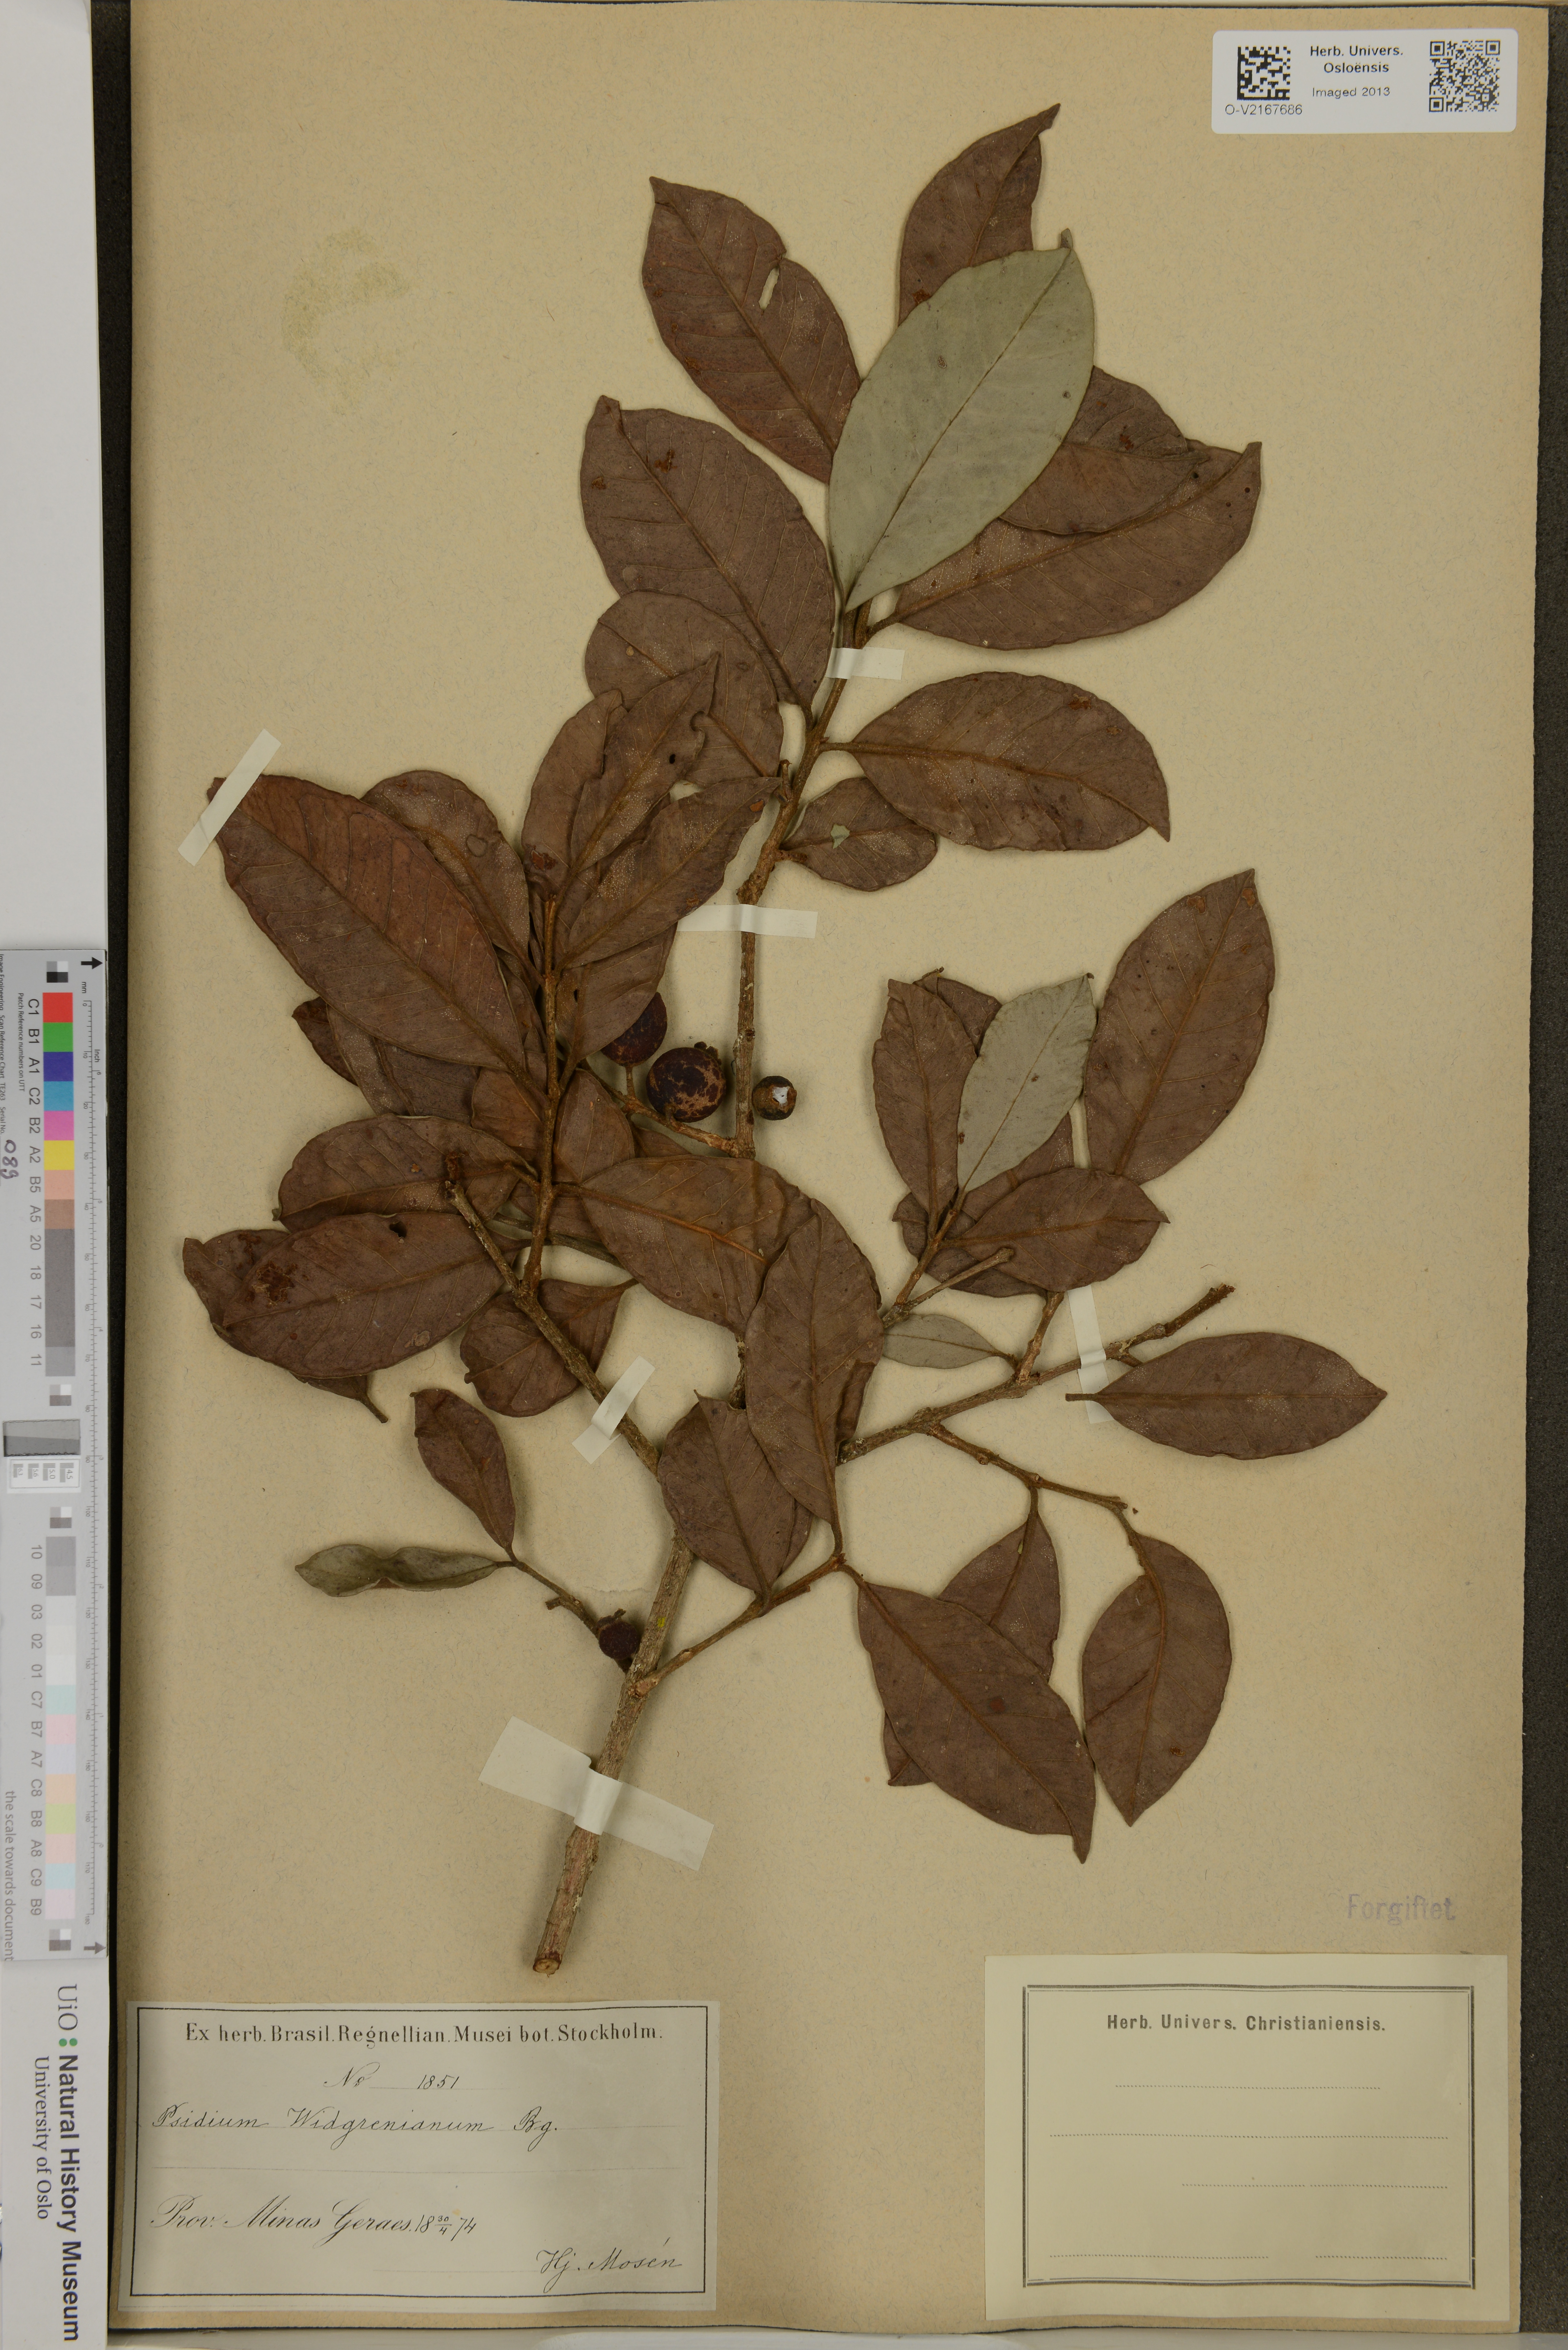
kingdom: Plantae
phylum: Tracheophyta
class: Magnoliopsida
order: Myrtales
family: Myrtaceae
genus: Psidium
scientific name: Psidium rufum
